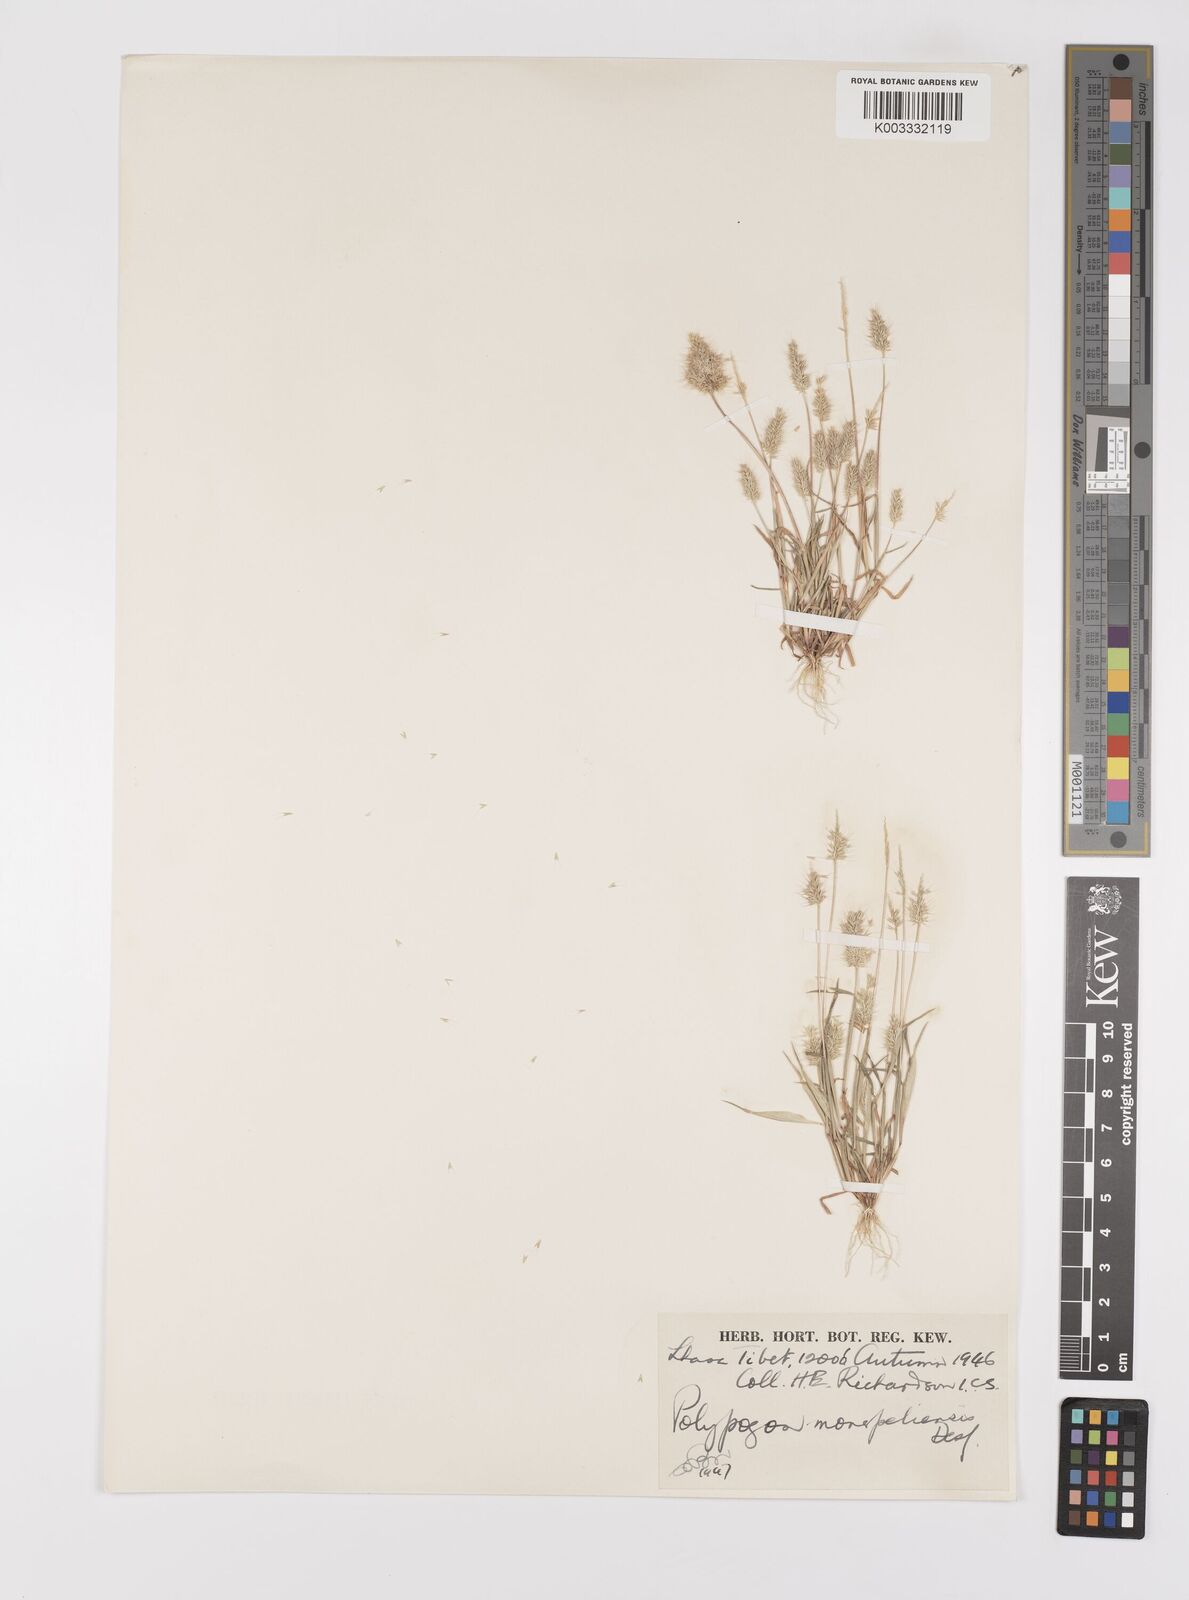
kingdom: Plantae
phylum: Tracheophyta
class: Liliopsida
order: Poales
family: Poaceae
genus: Polypogon
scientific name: Polypogon monspeliensis
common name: Annual rabbitsfoot grass
